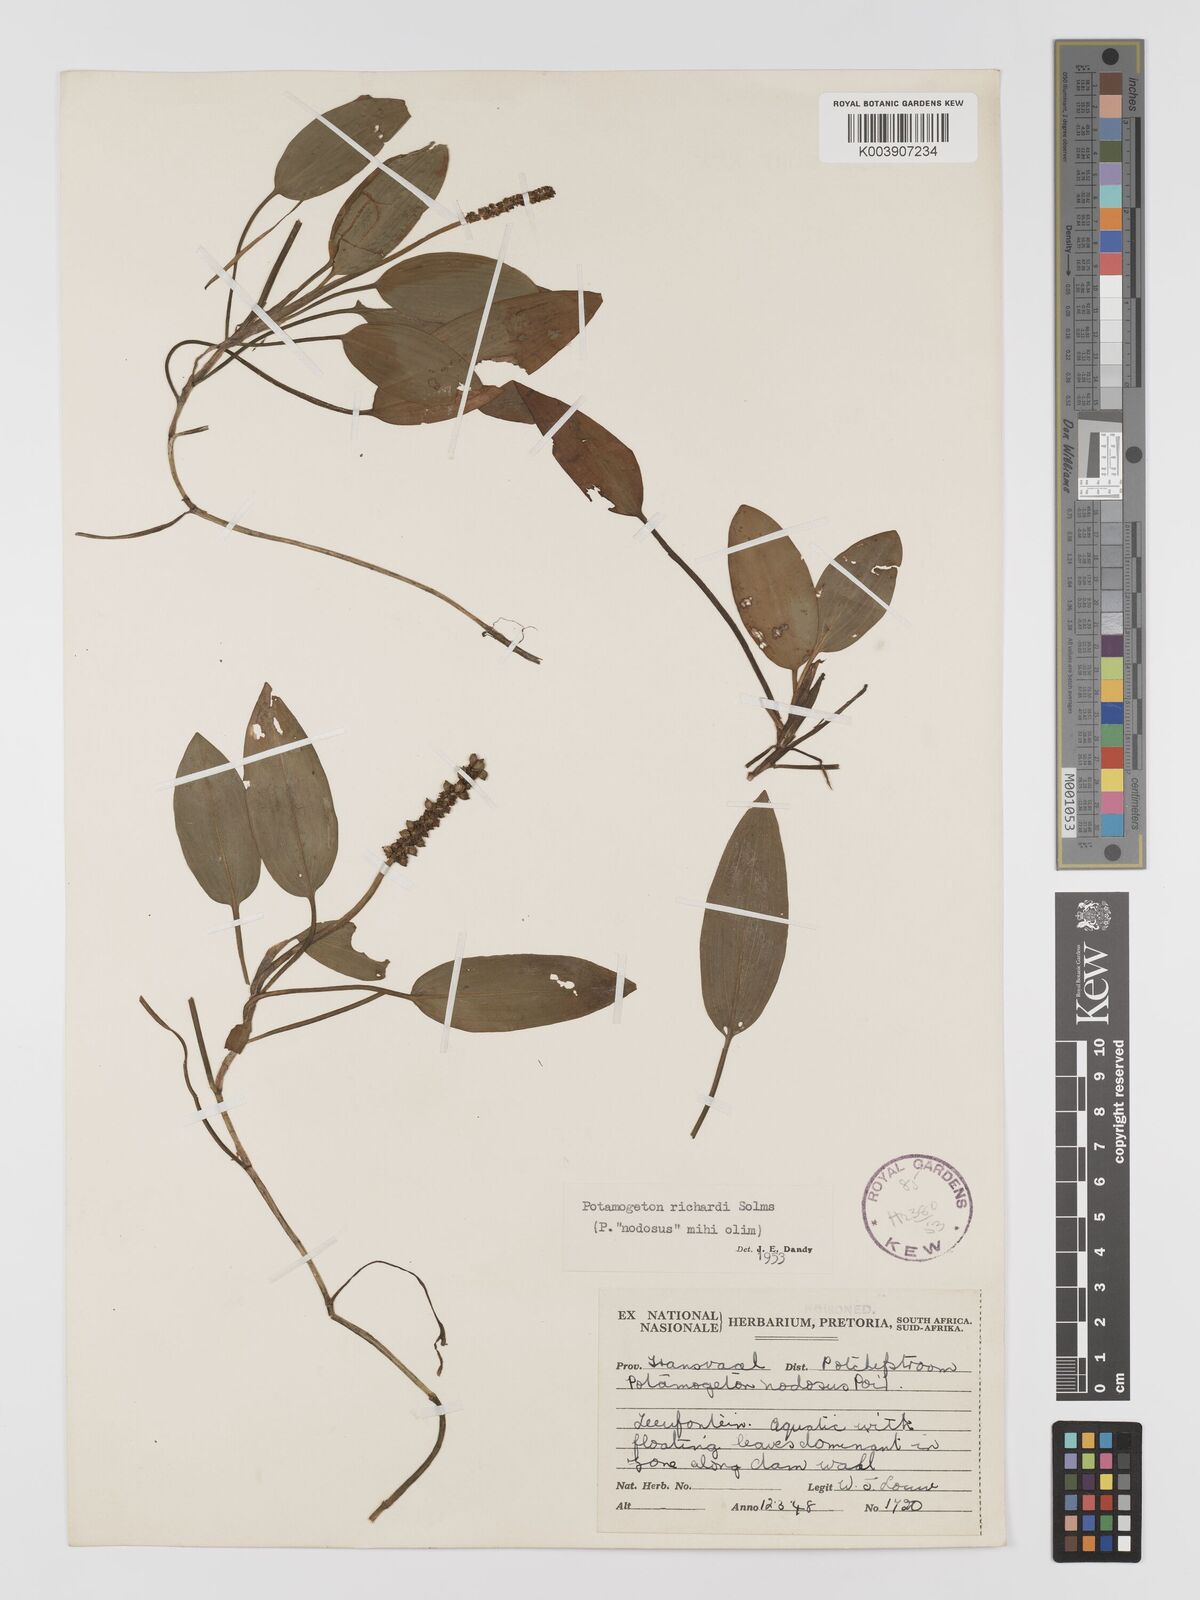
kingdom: Plantae
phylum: Tracheophyta
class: Liliopsida
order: Alismatales
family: Potamogetonaceae
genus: Potamogeton
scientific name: Potamogeton nodosus
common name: Loddon pondweed
